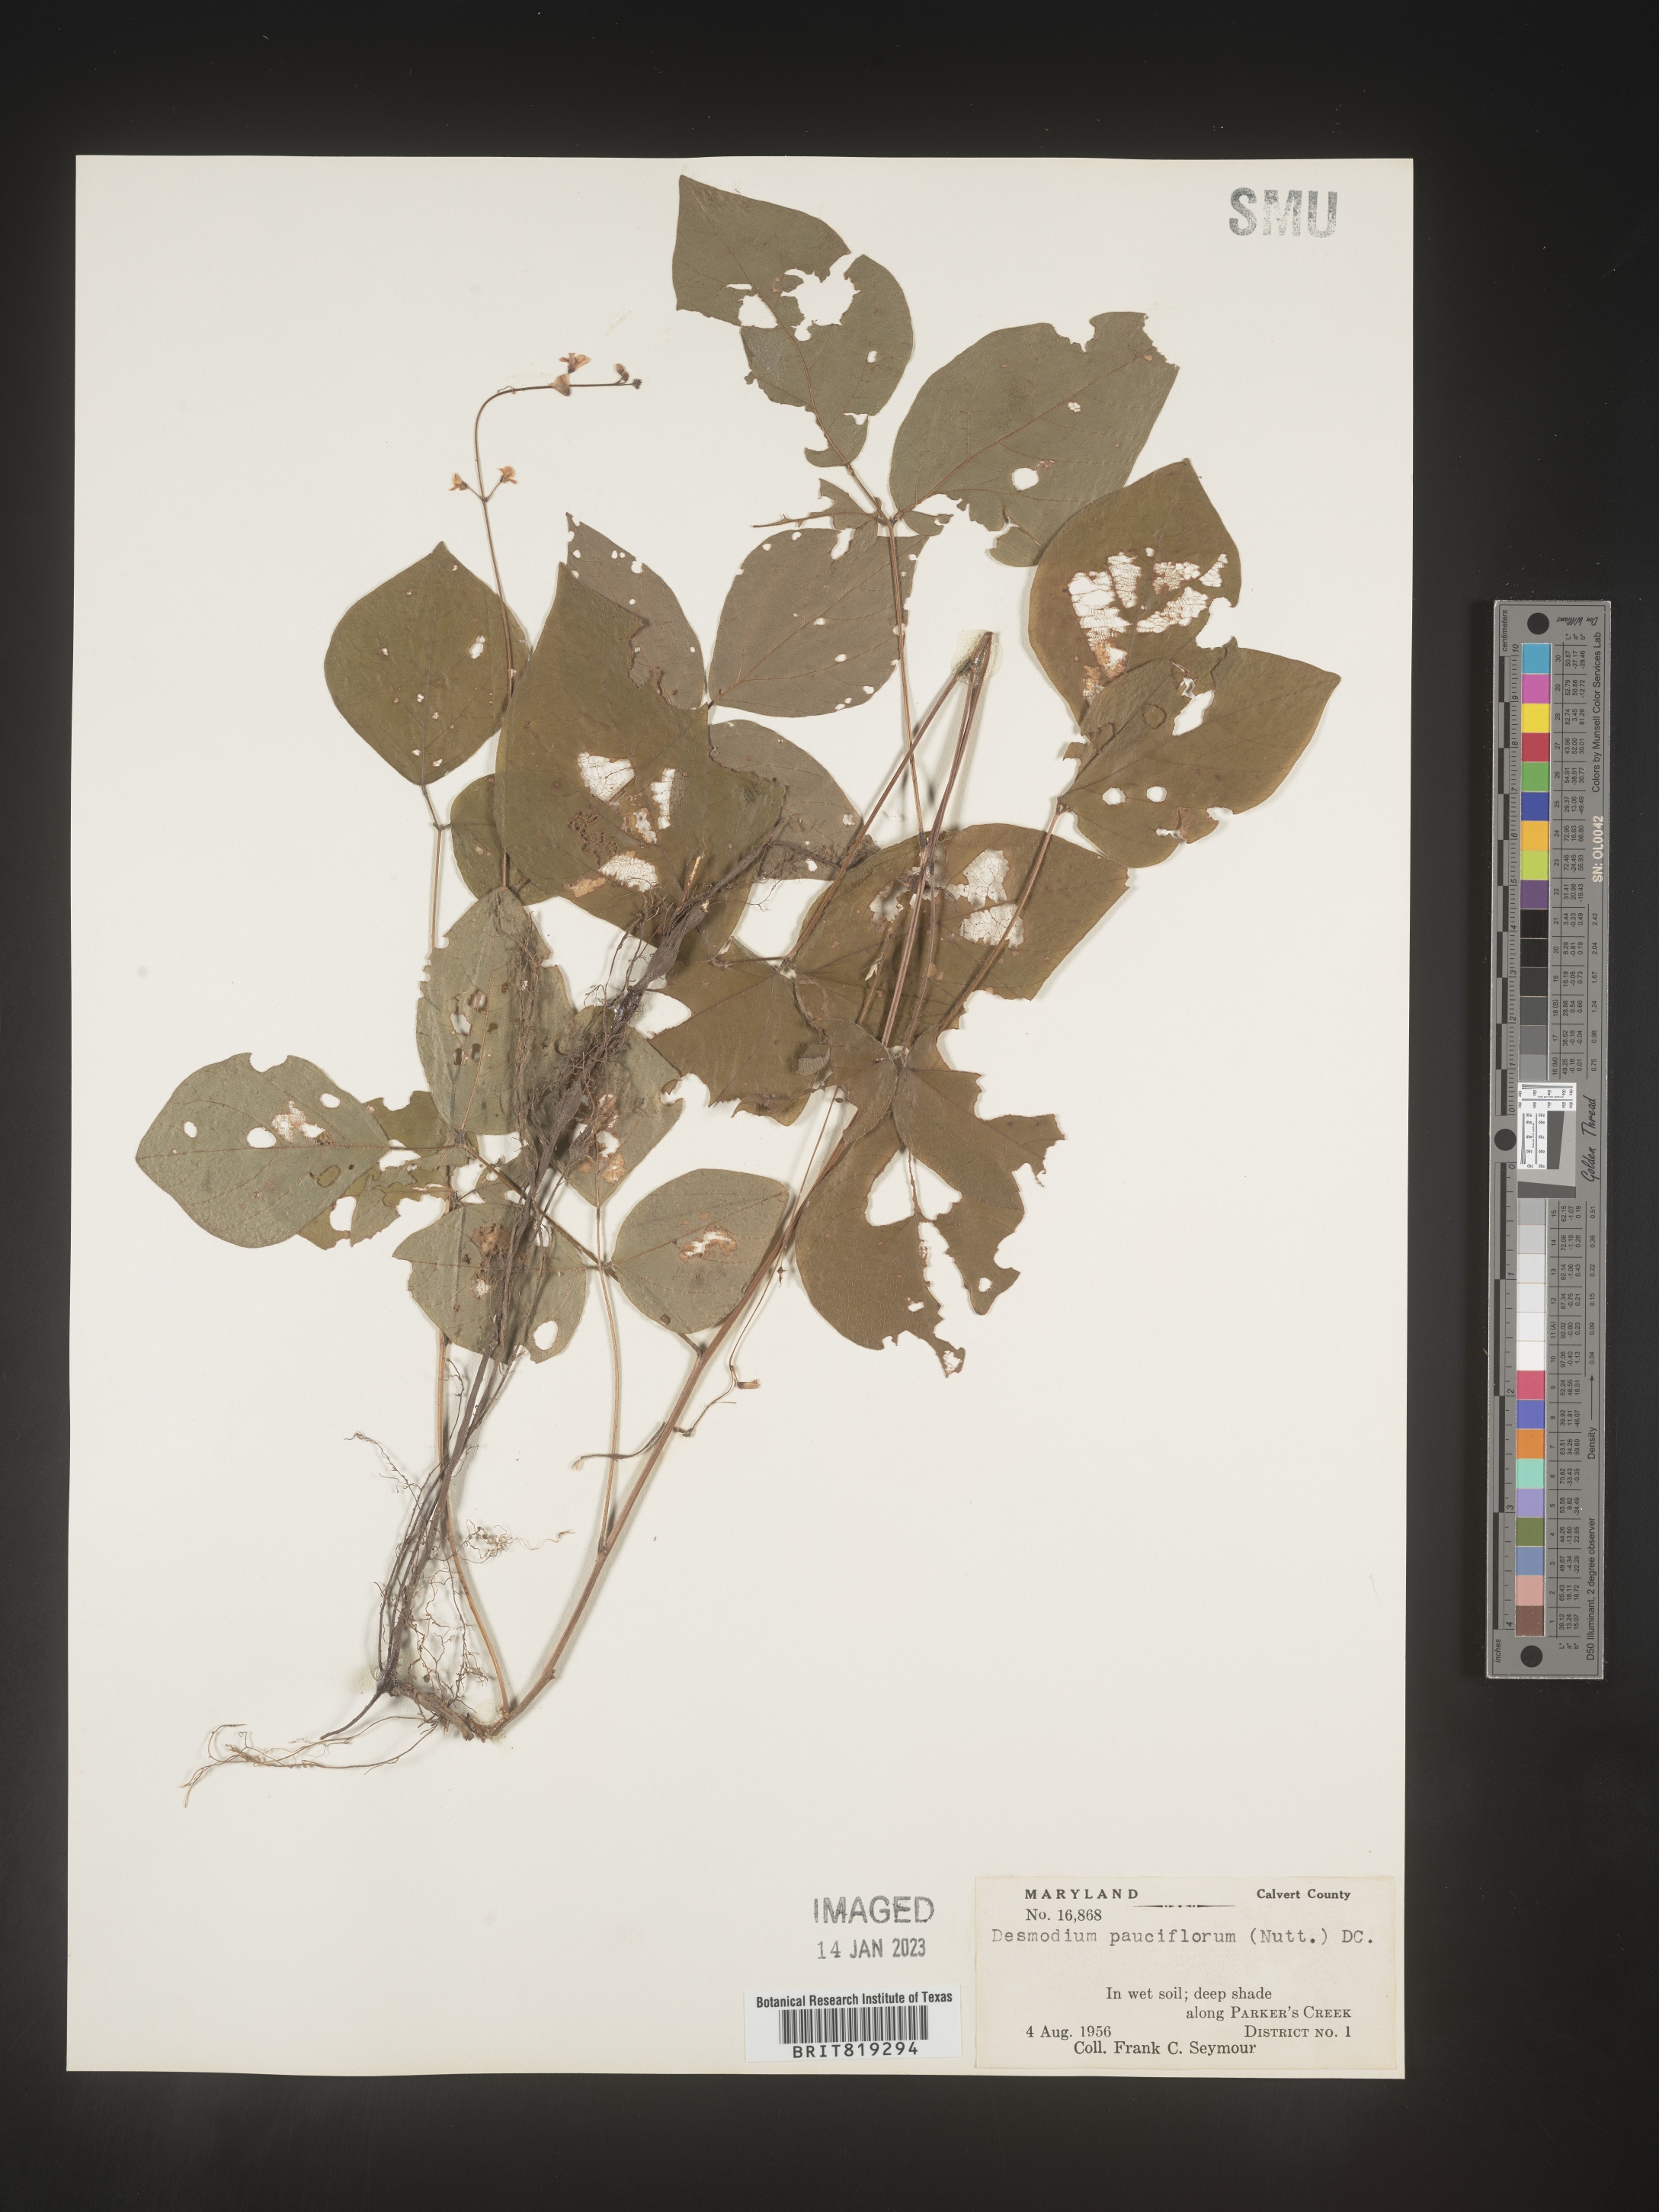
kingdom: Plantae
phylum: Tracheophyta
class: Magnoliopsida
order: Fabales
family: Fabaceae
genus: Hylodesmum
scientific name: Hylodesmum pauciflorum
